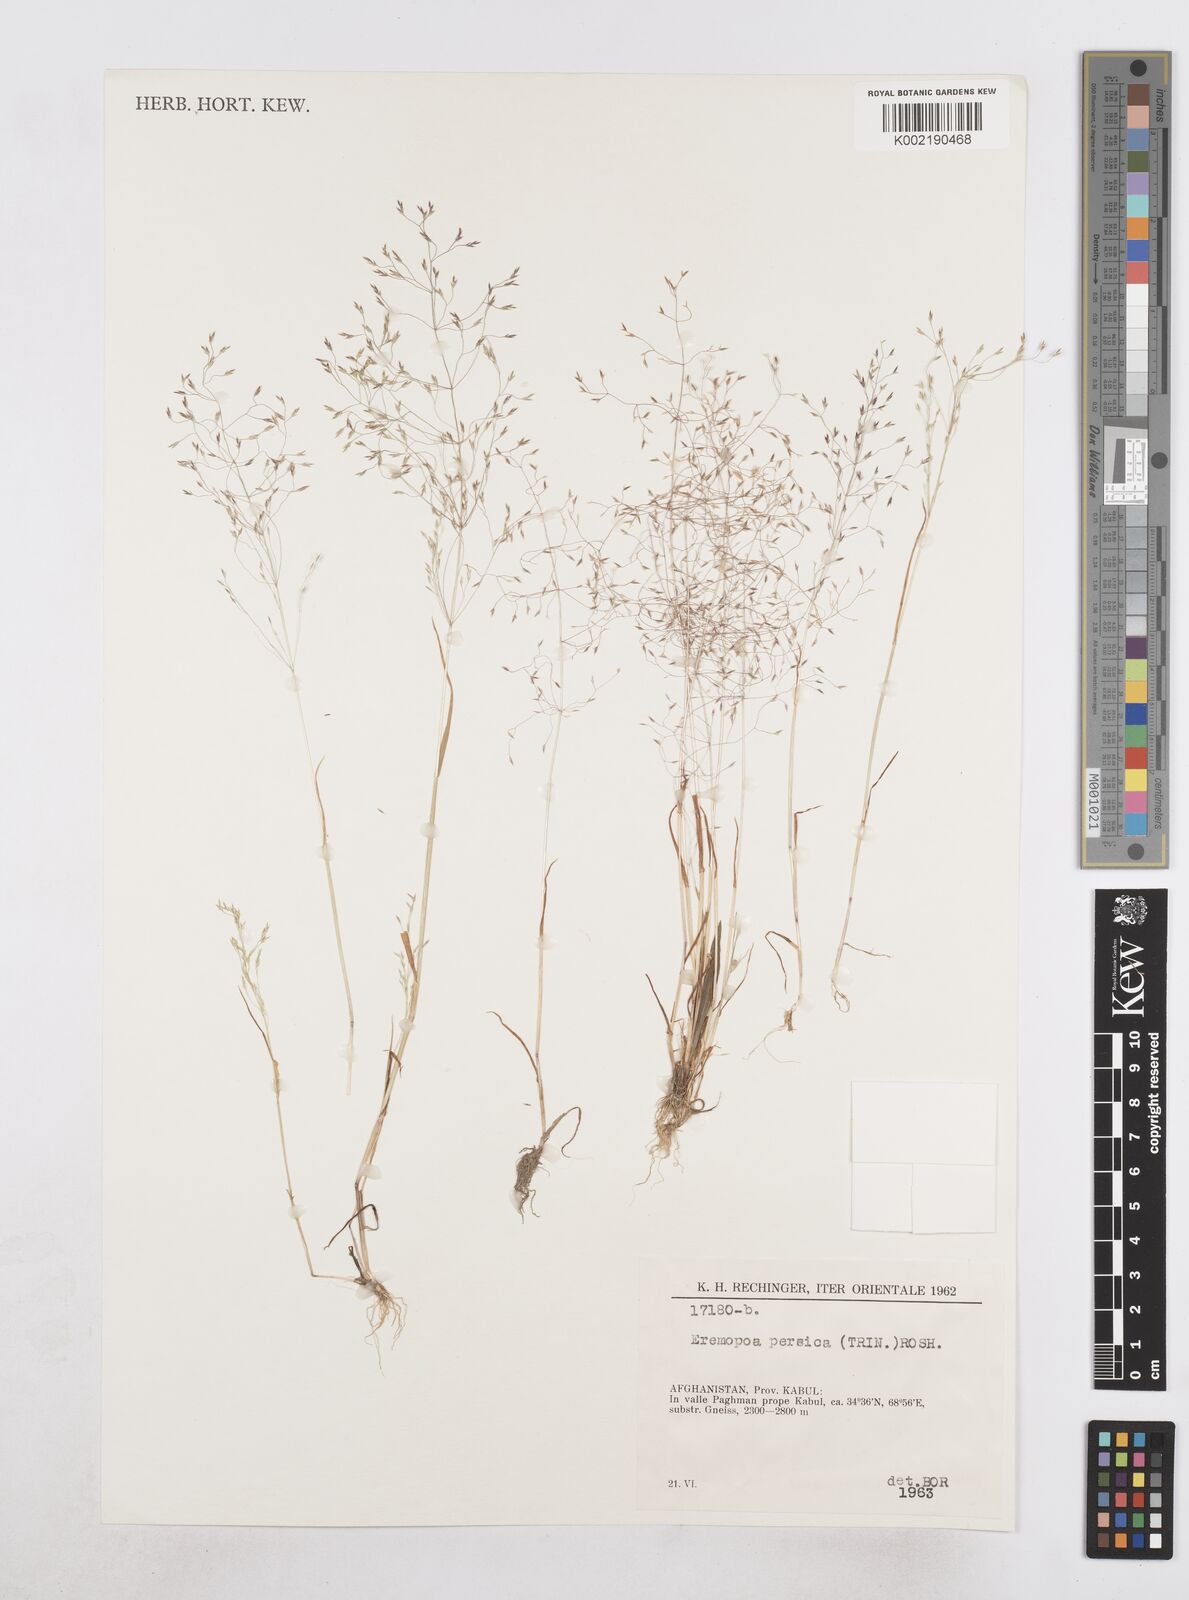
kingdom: Plantae
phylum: Tracheophyta
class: Liliopsida
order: Poales
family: Poaceae
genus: Poa
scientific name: Poa diaphora
